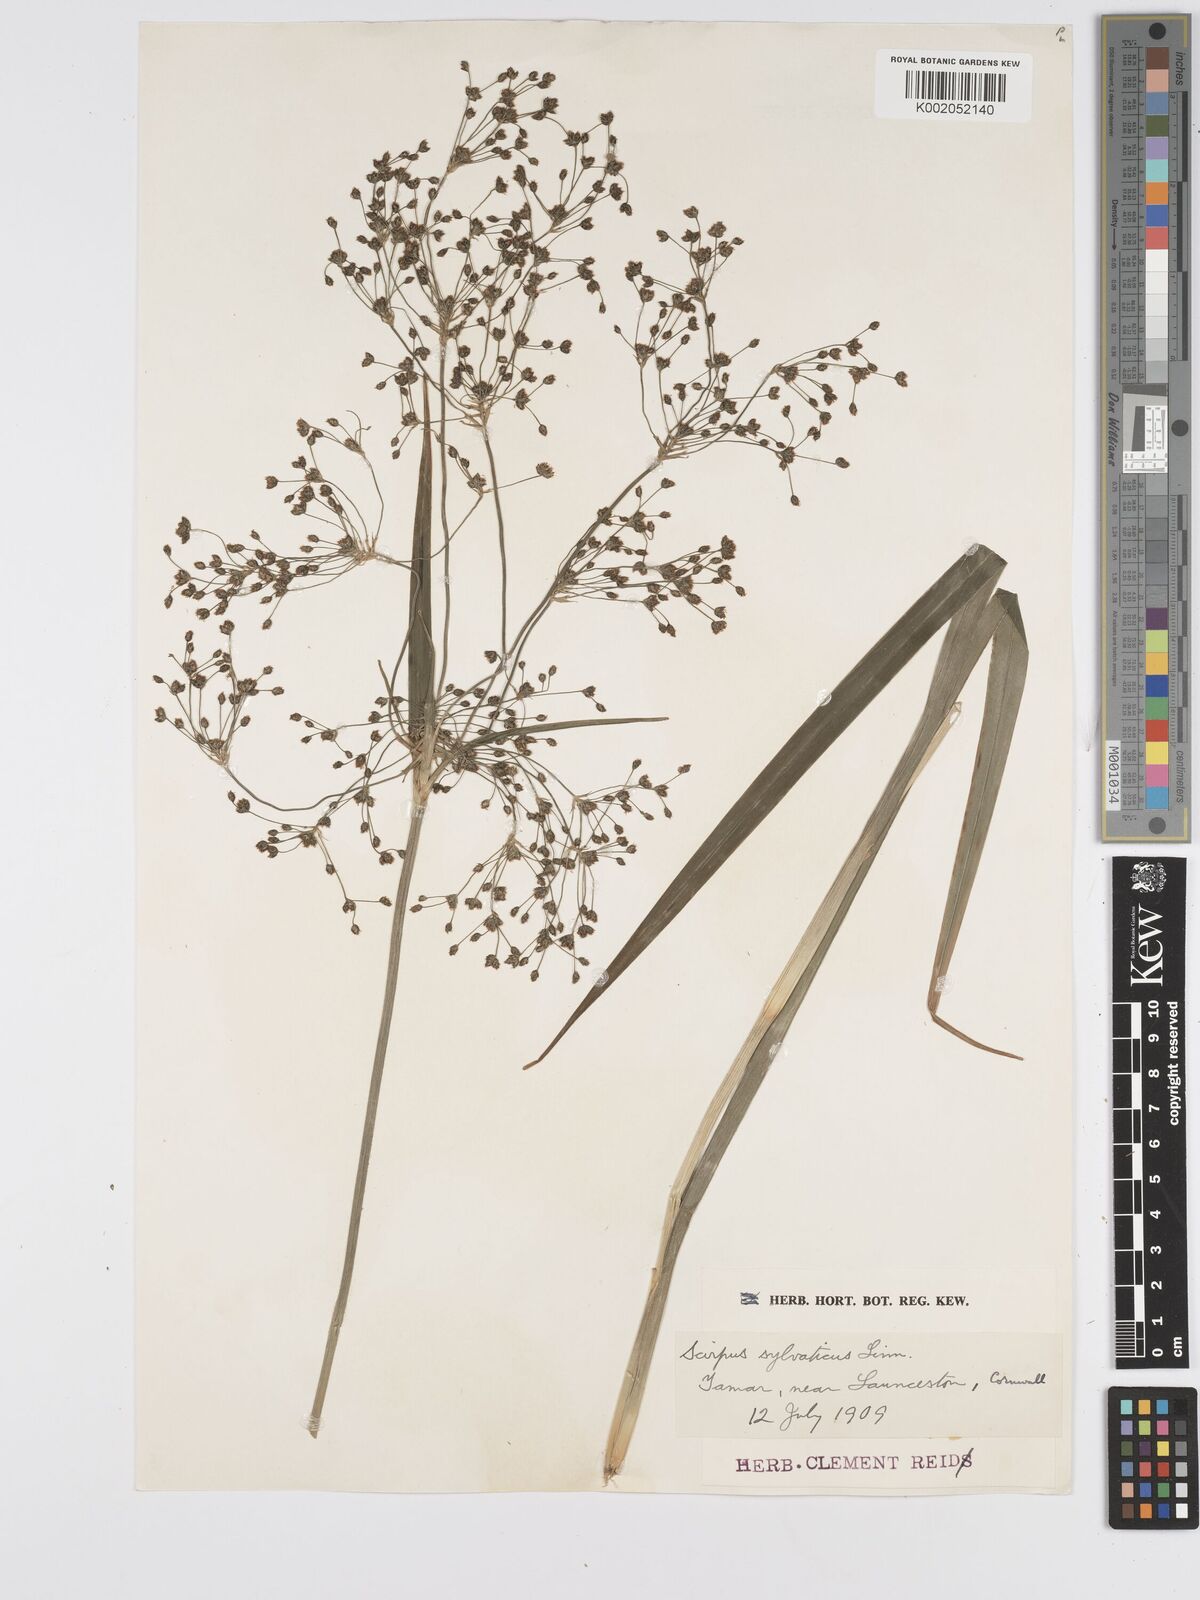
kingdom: Plantae
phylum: Tracheophyta
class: Liliopsida
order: Poales
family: Cyperaceae
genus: Scirpus
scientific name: Scirpus sylvaticus
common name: Wood club-rush
